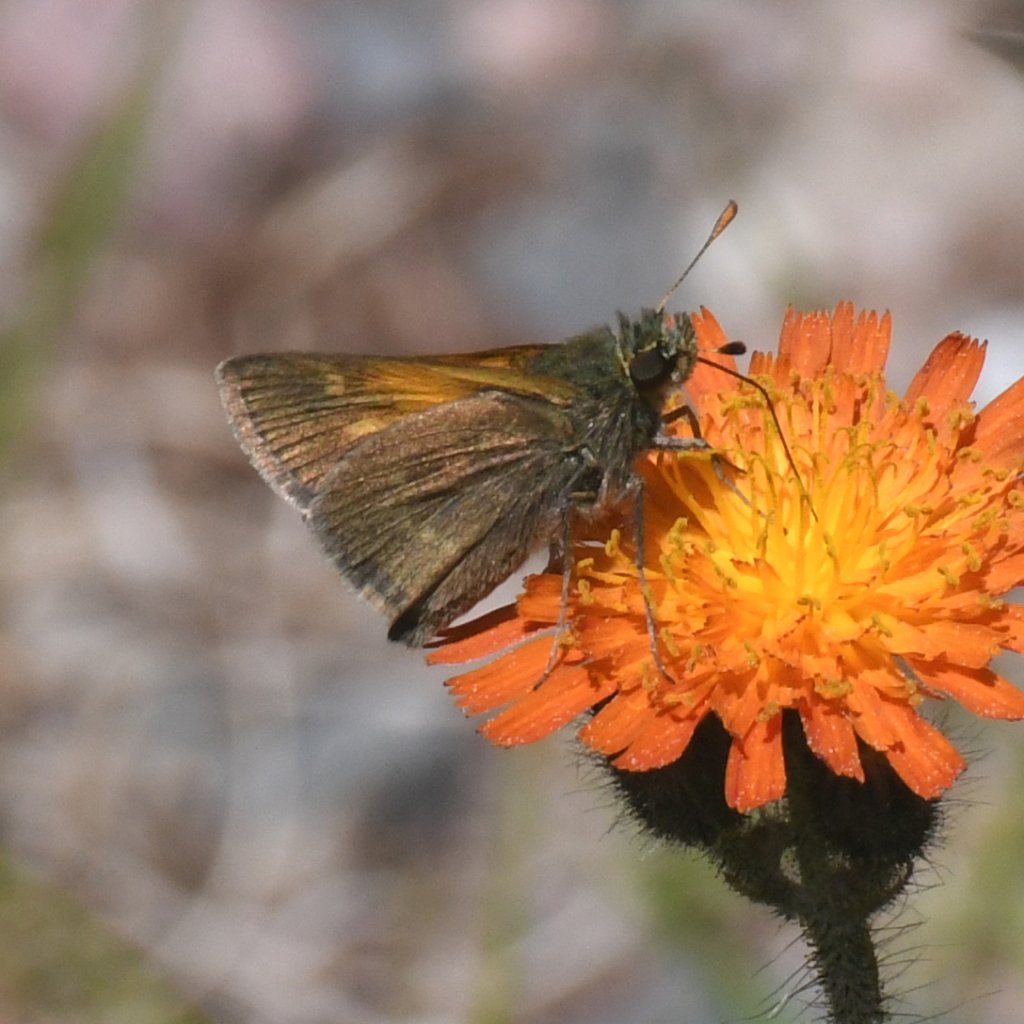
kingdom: Animalia
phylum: Arthropoda
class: Insecta
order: Lepidoptera
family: Hesperiidae
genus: Polites
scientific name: Polites themistocles
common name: Tawny-edged Skipper
